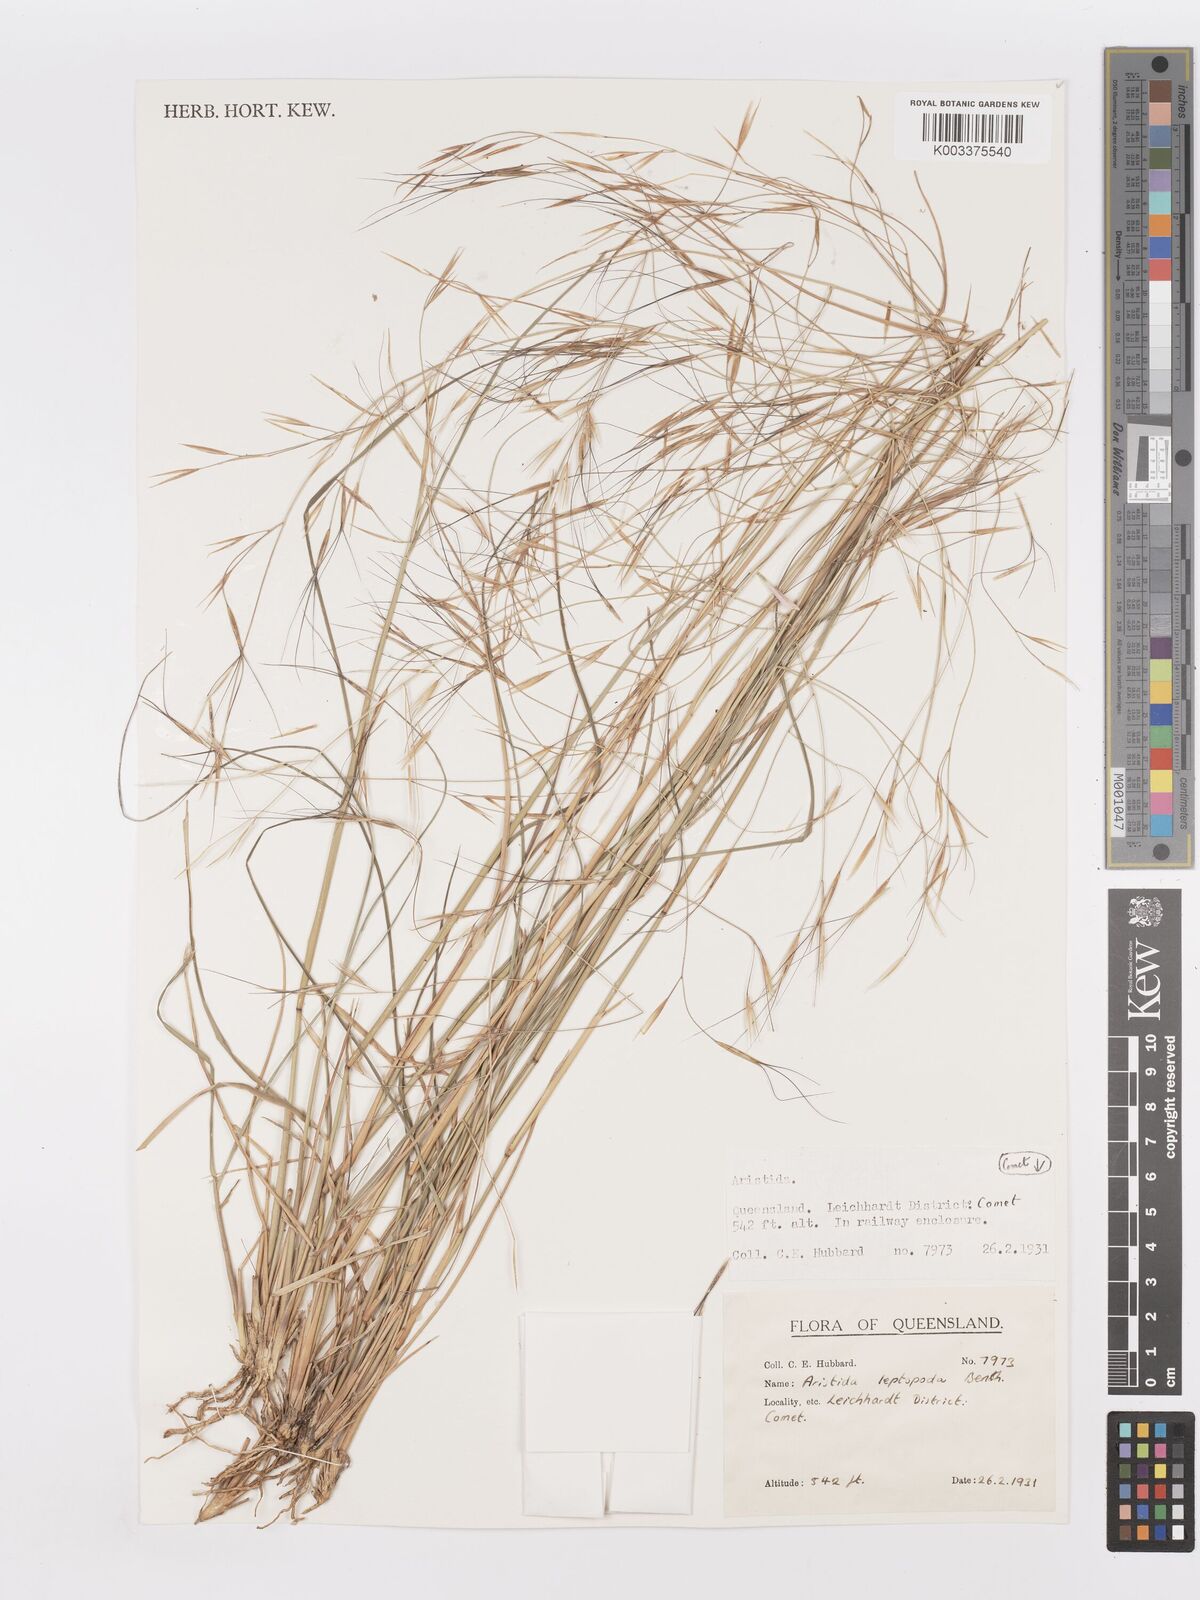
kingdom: Plantae
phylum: Tracheophyta
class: Liliopsida
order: Poales
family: Poaceae
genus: Aristida
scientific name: Aristida leptopoda
